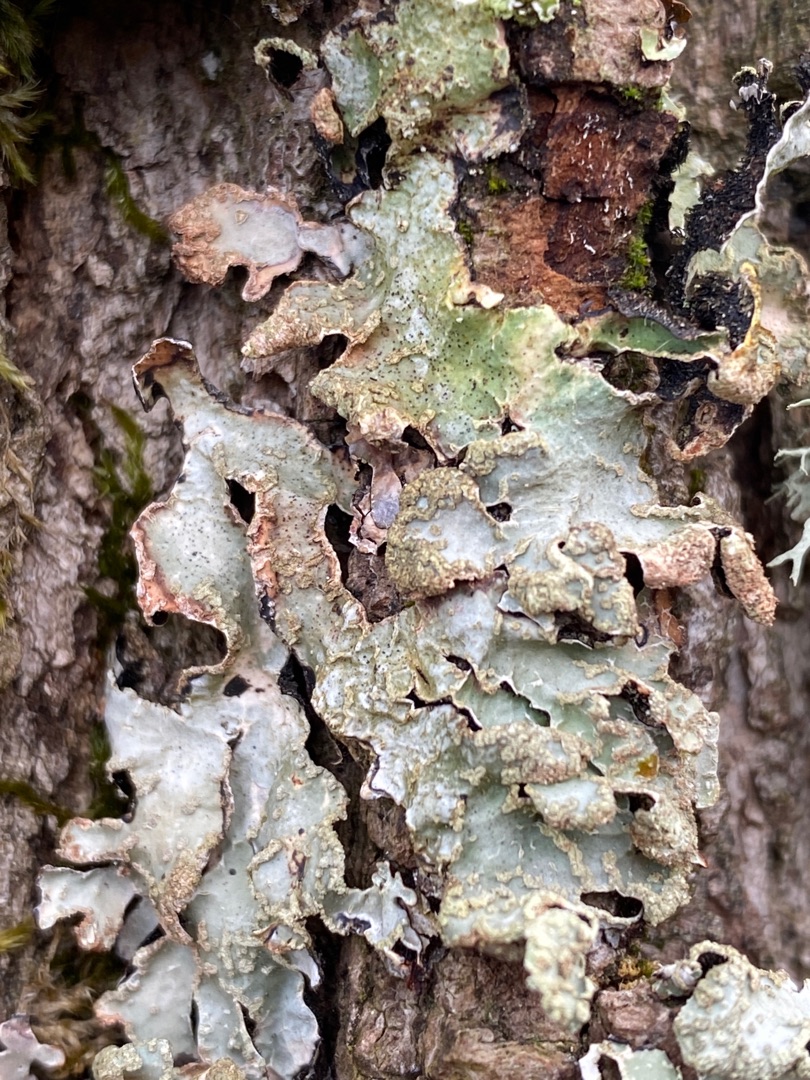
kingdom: Fungi
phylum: Ascomycota
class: Lecanoromycetes
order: Lecanorales
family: Parmeliaceae
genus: Parmelia
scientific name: Parmelia sulcata
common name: Rynket skållav
